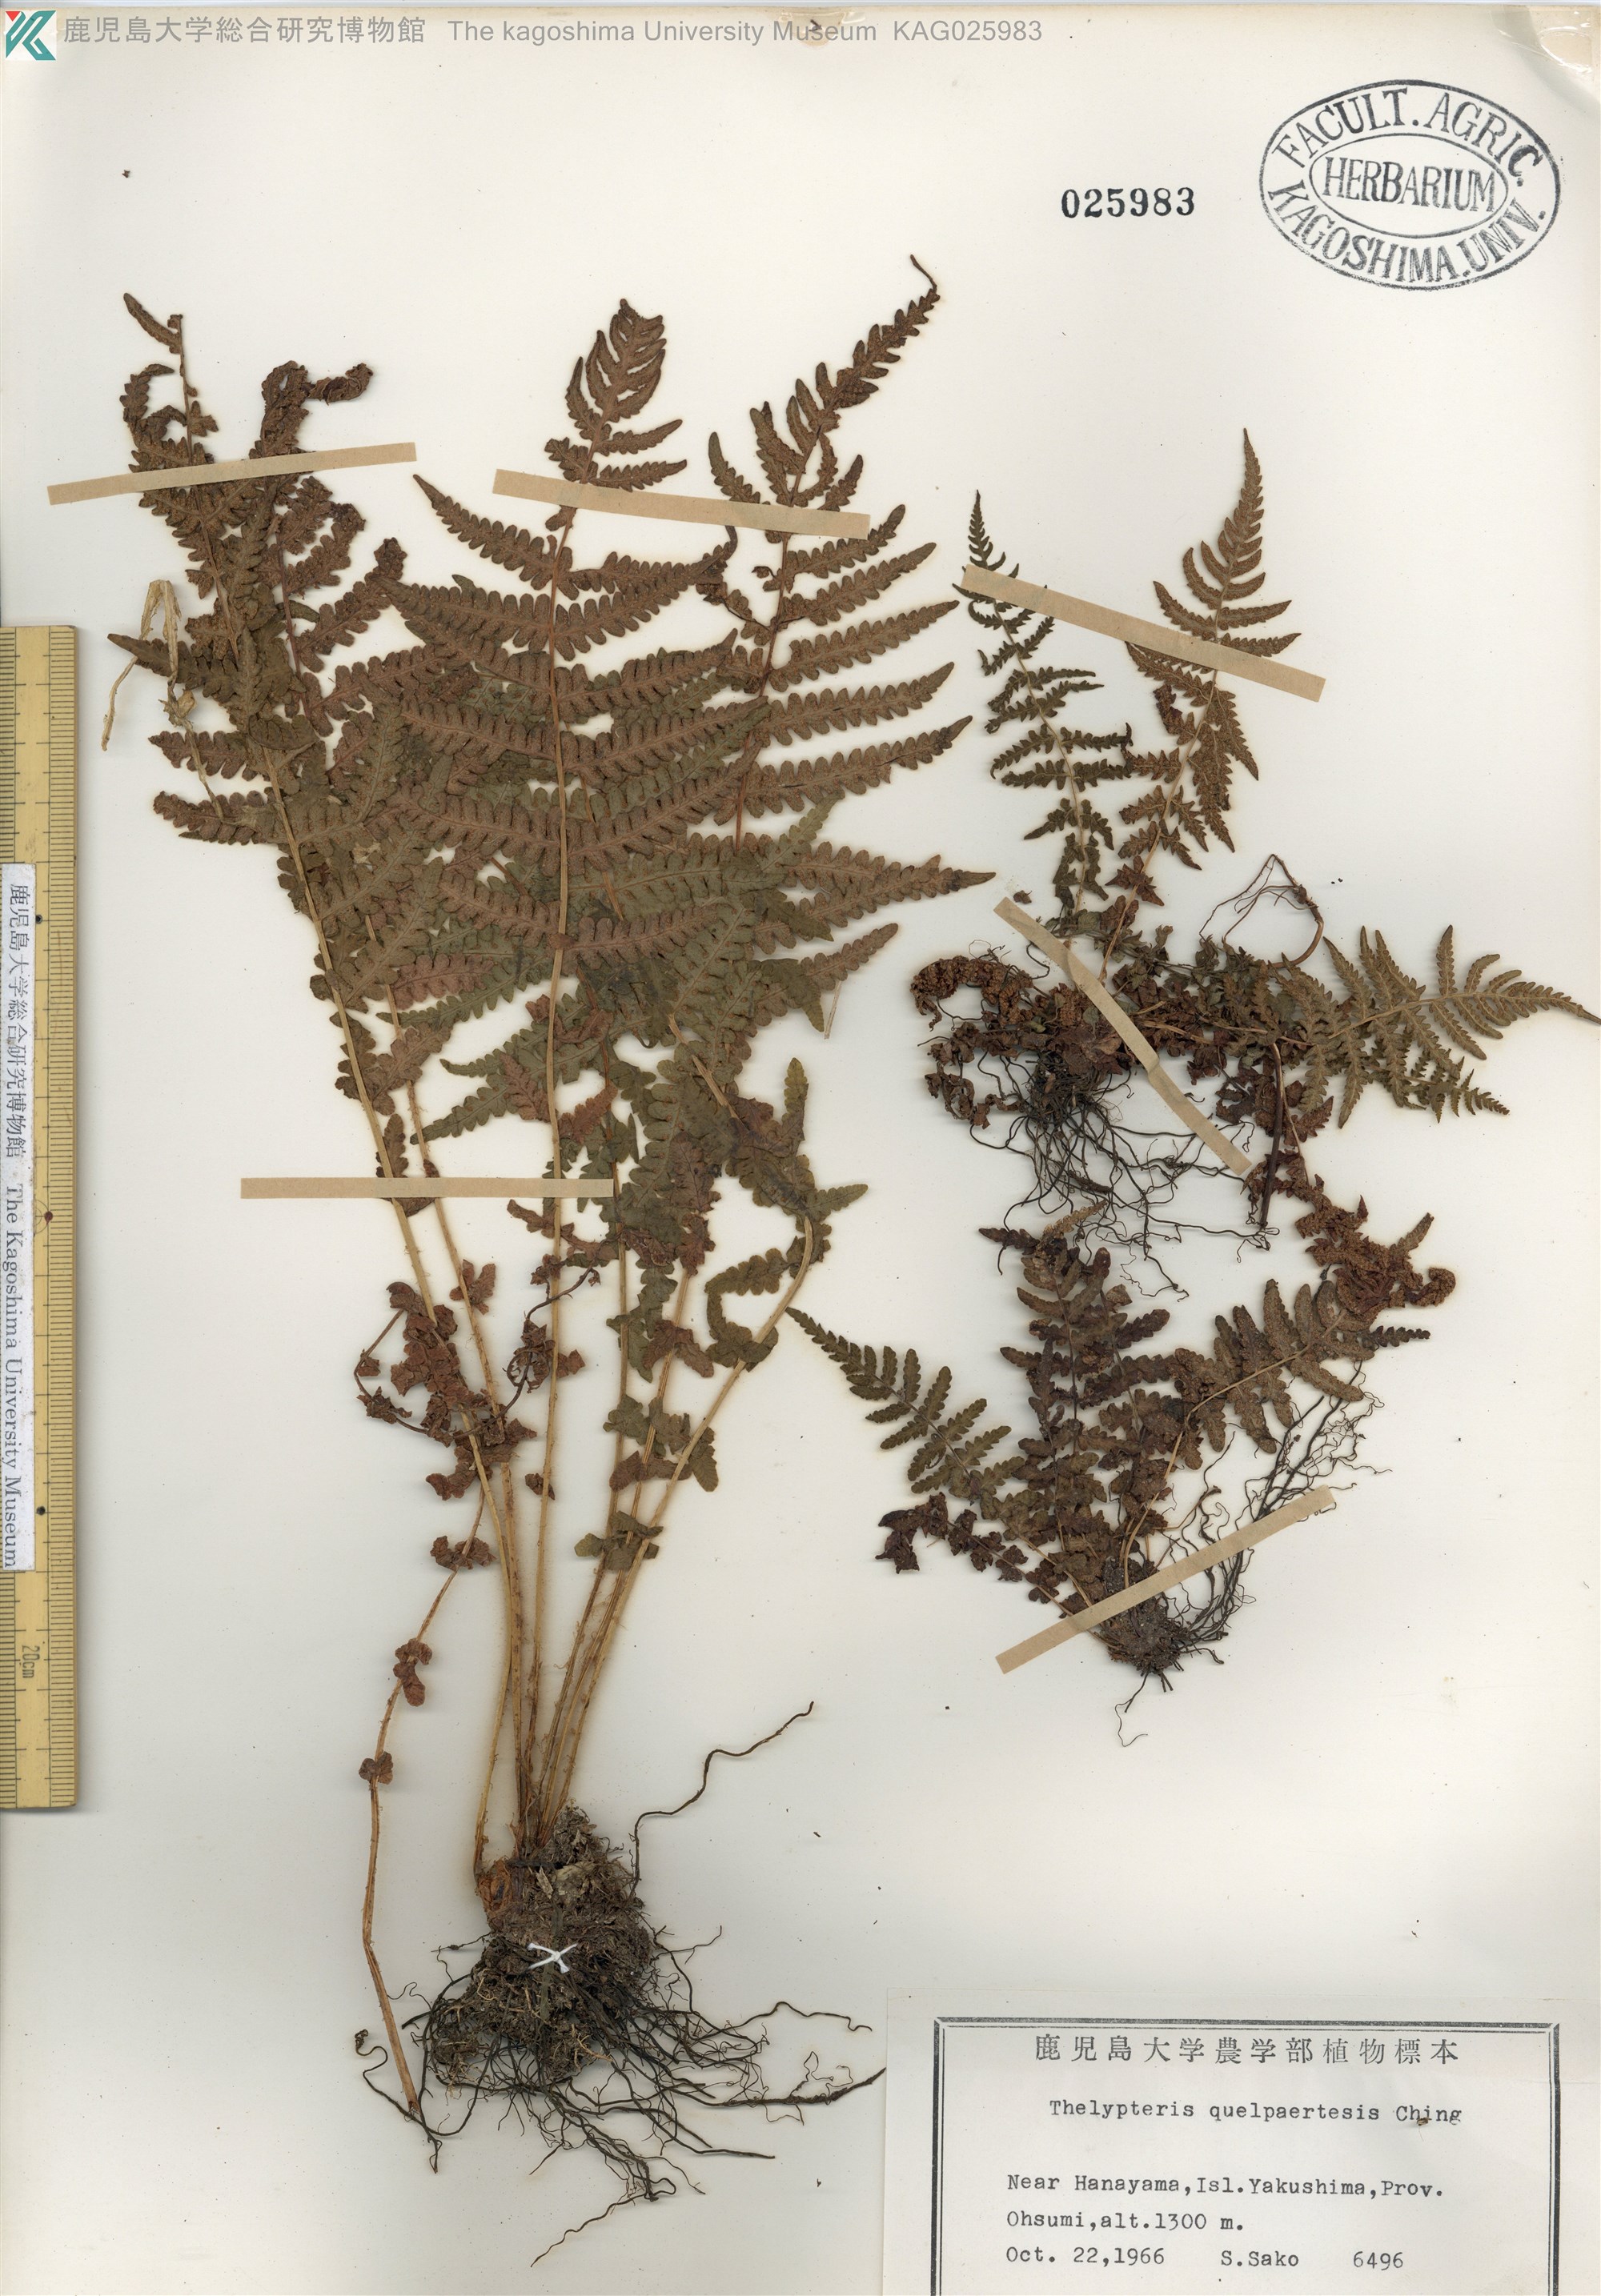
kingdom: Plantae
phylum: Tracheophyta
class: Polypodiopsida
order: Polypodiales
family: Thelypteridaceae
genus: Oreopteris
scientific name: Oreopteris quelpartensis
